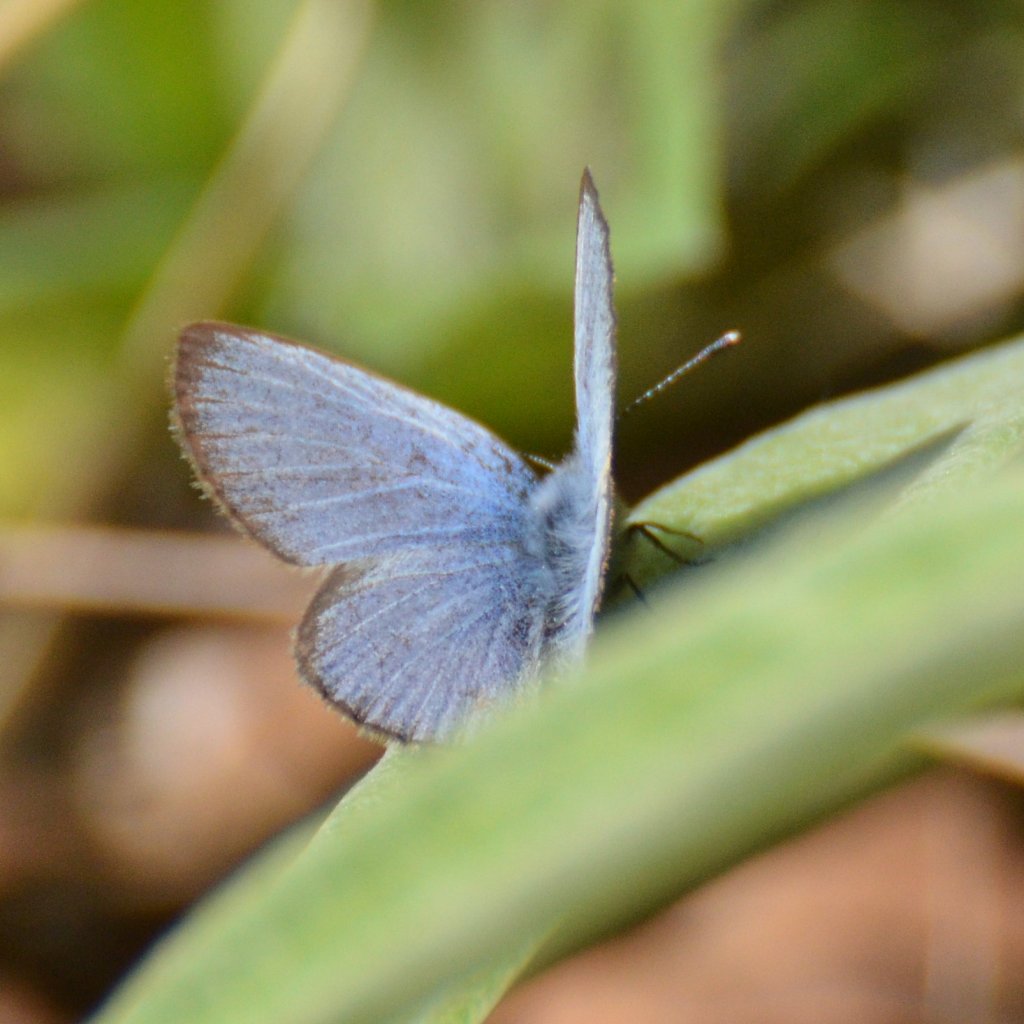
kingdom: Animalia
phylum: Arthropoda
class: Insecta
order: Lepidoptera
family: Lycaenidae
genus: Glaucopsyche
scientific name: Glaucopsyche lygdamus
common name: Silvery Blue
